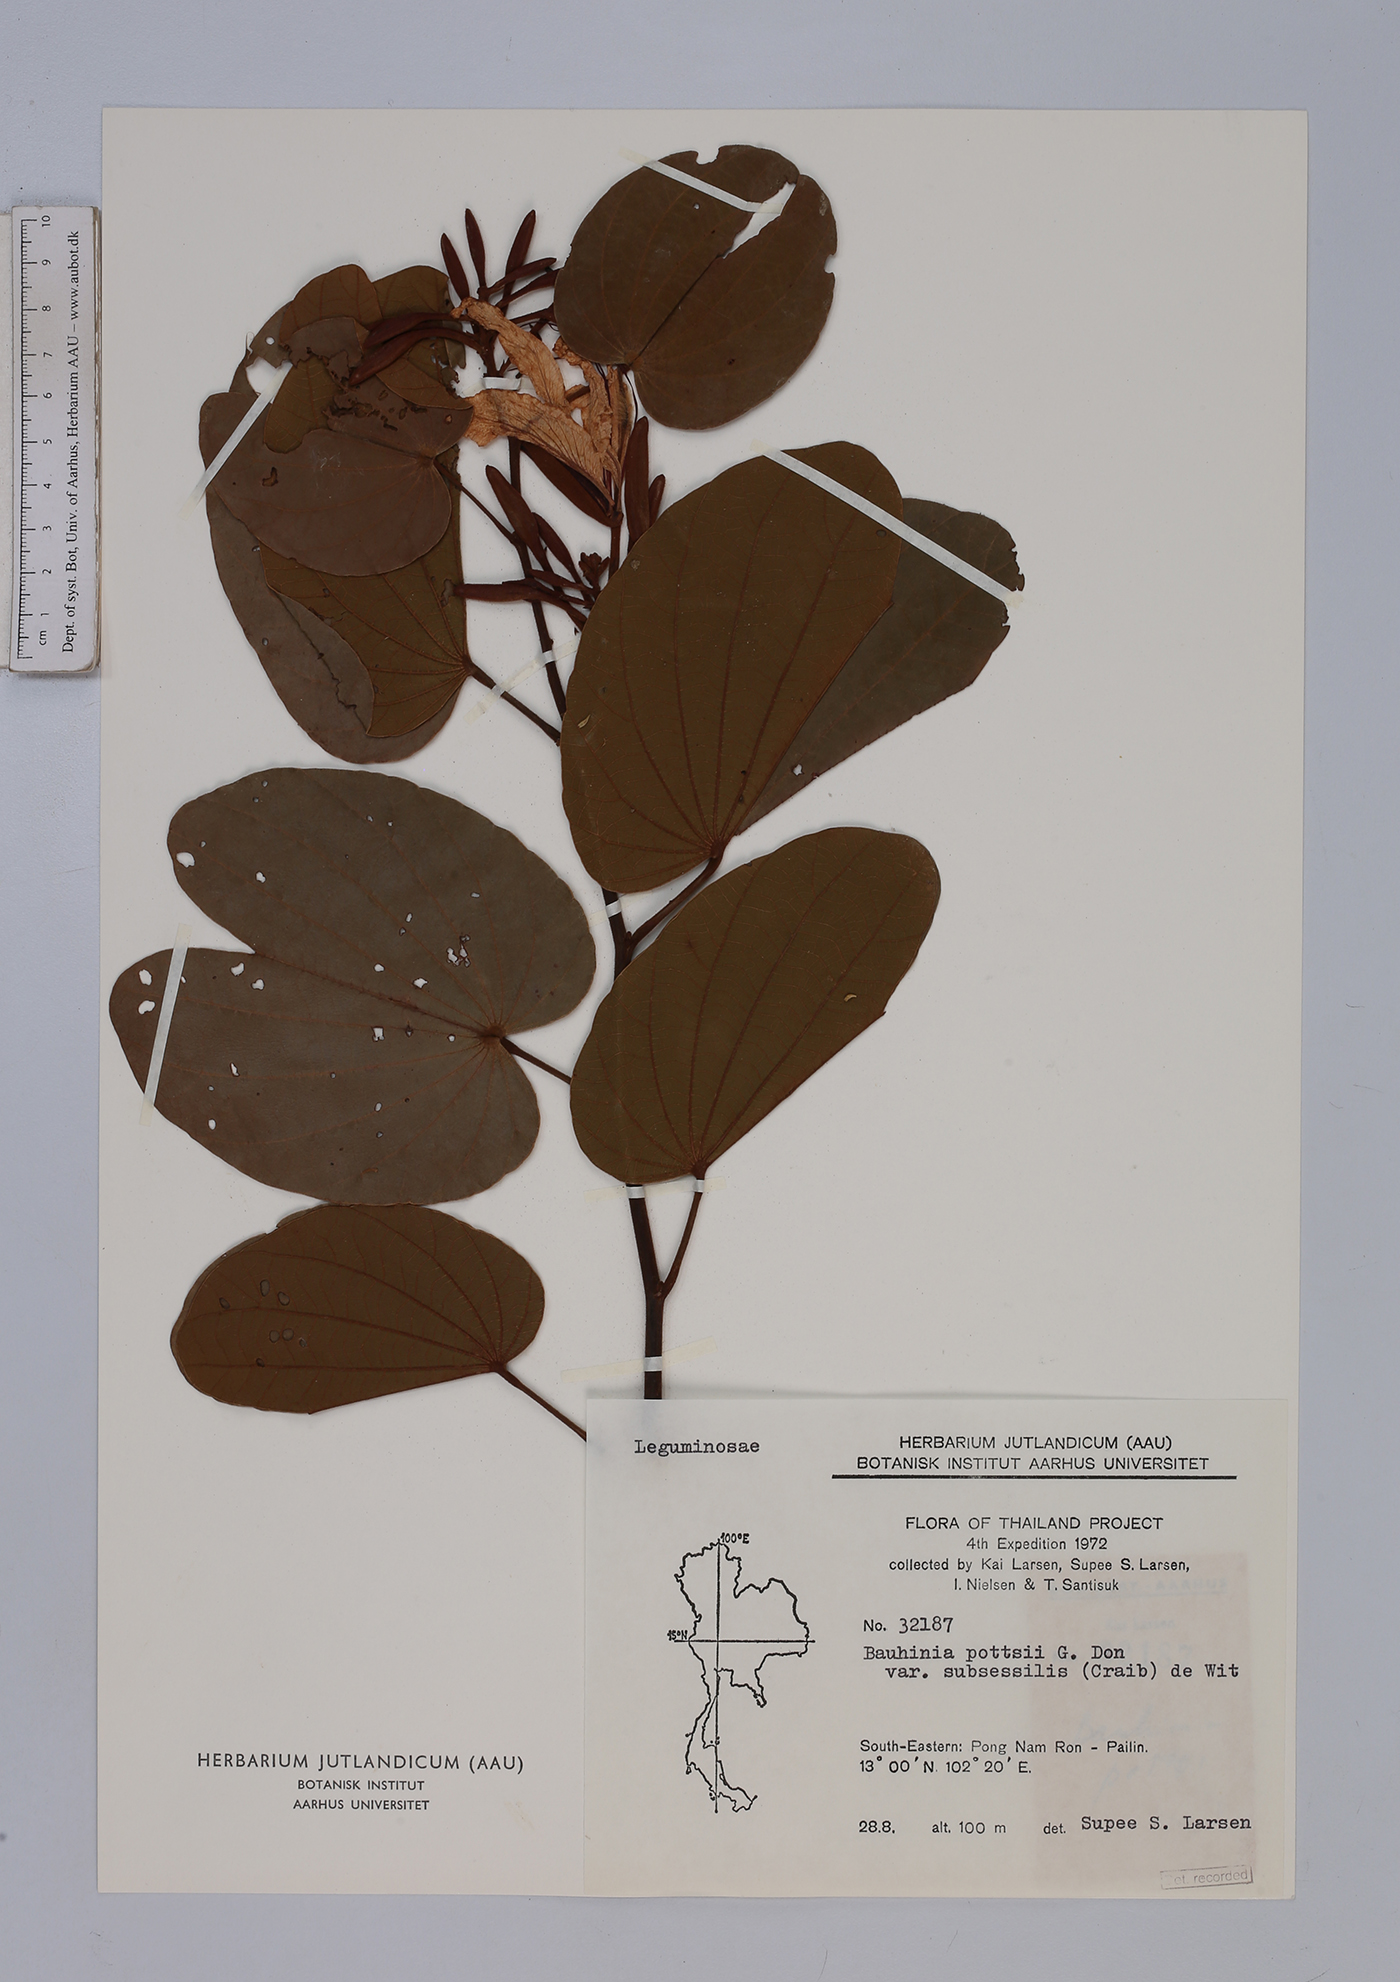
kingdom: Plantae
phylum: Tracheophyta
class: Magnoliopsida
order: Fabales
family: Fabaceae
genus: Bauhinia
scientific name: Bauhinia pottsii
